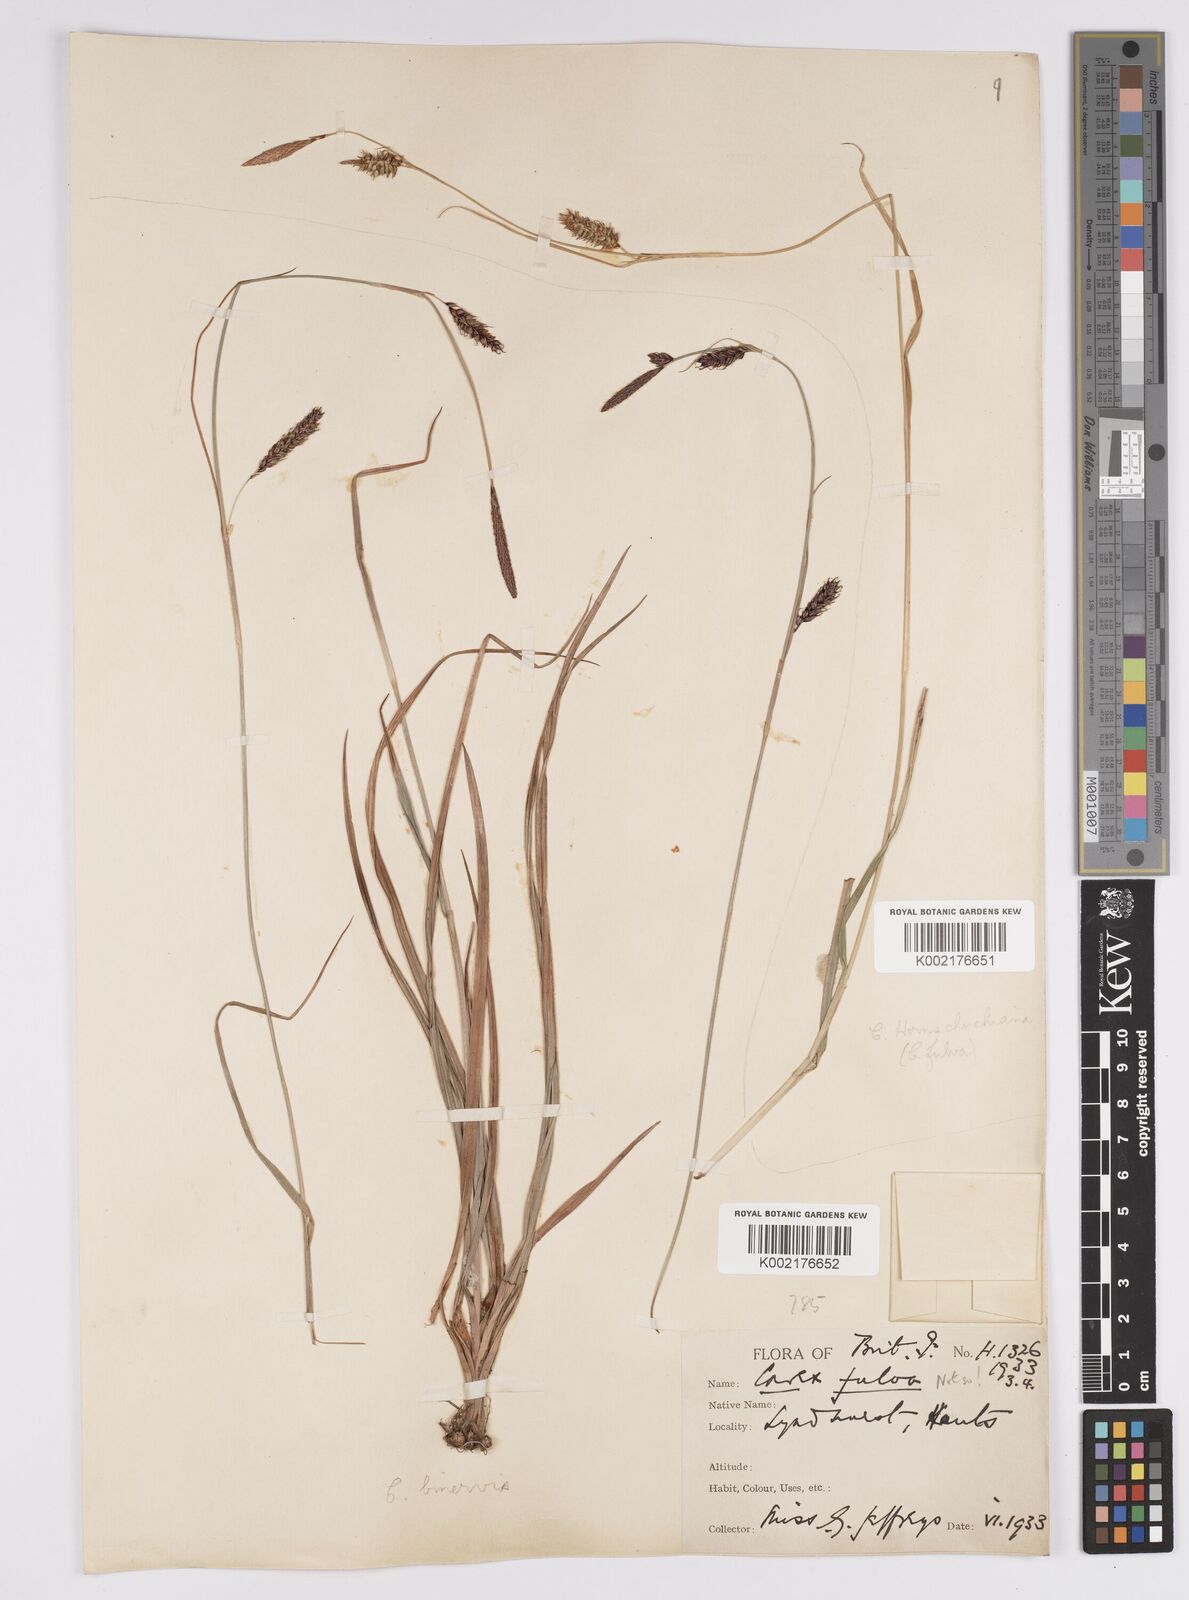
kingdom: Plantae
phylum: Tracheophyta
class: Liliopsida
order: Poales
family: Cyperaceae
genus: Carex
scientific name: Carex binervis
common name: Green-ribbed sedge
